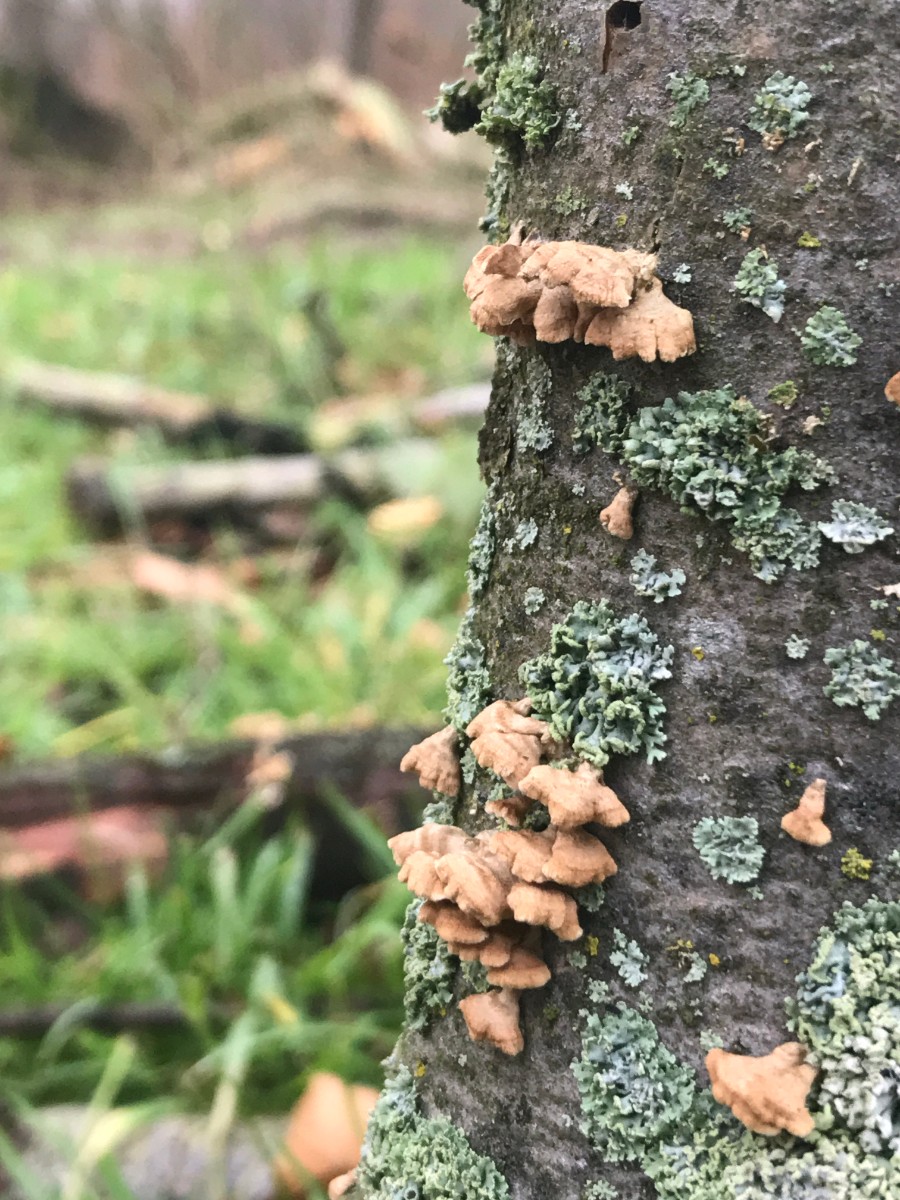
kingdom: Fungi
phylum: Basidiomycota
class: Agaricomycetes
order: Amylocorticiales
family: Amylocorticiaceae
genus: Plicaturopsis
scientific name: Plicaturopsis crispa
